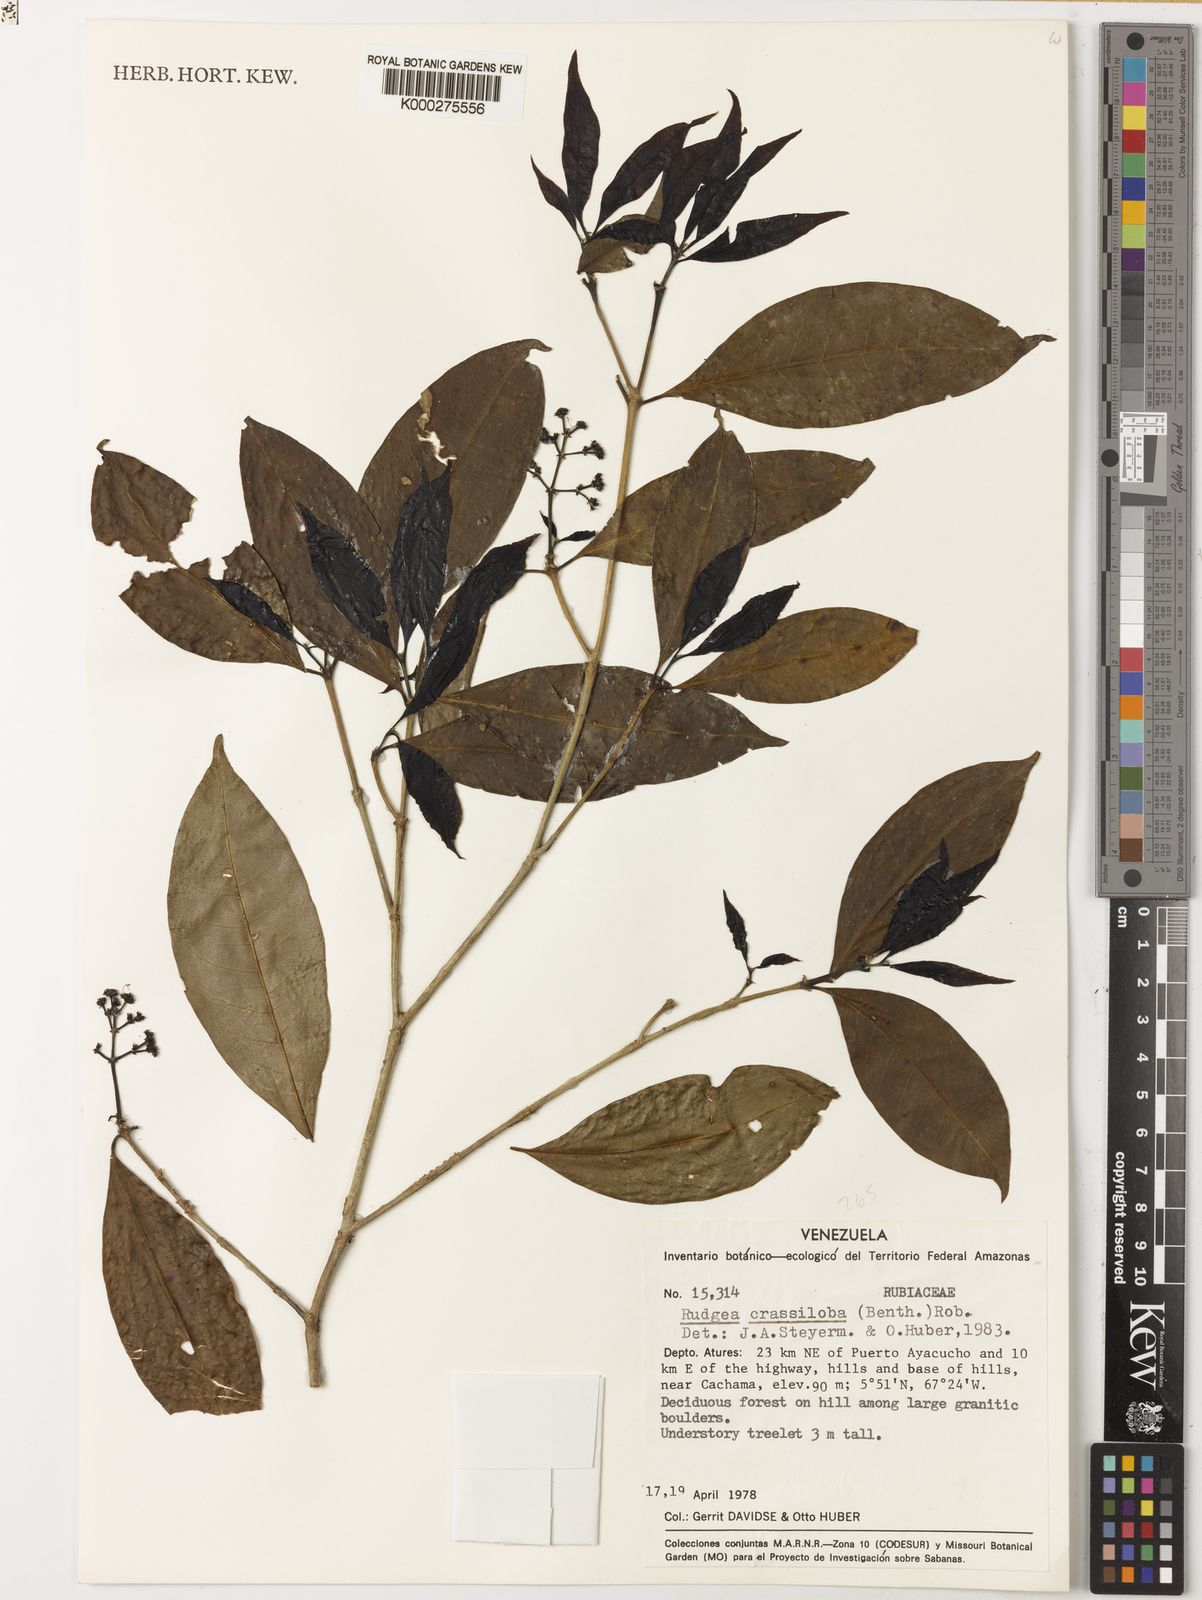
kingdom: Plantae
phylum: Tracheophyta
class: Magnoliopsida
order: Gentianales
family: Rubiaceae
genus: Rudgea
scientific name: Rudgea crassiloba
